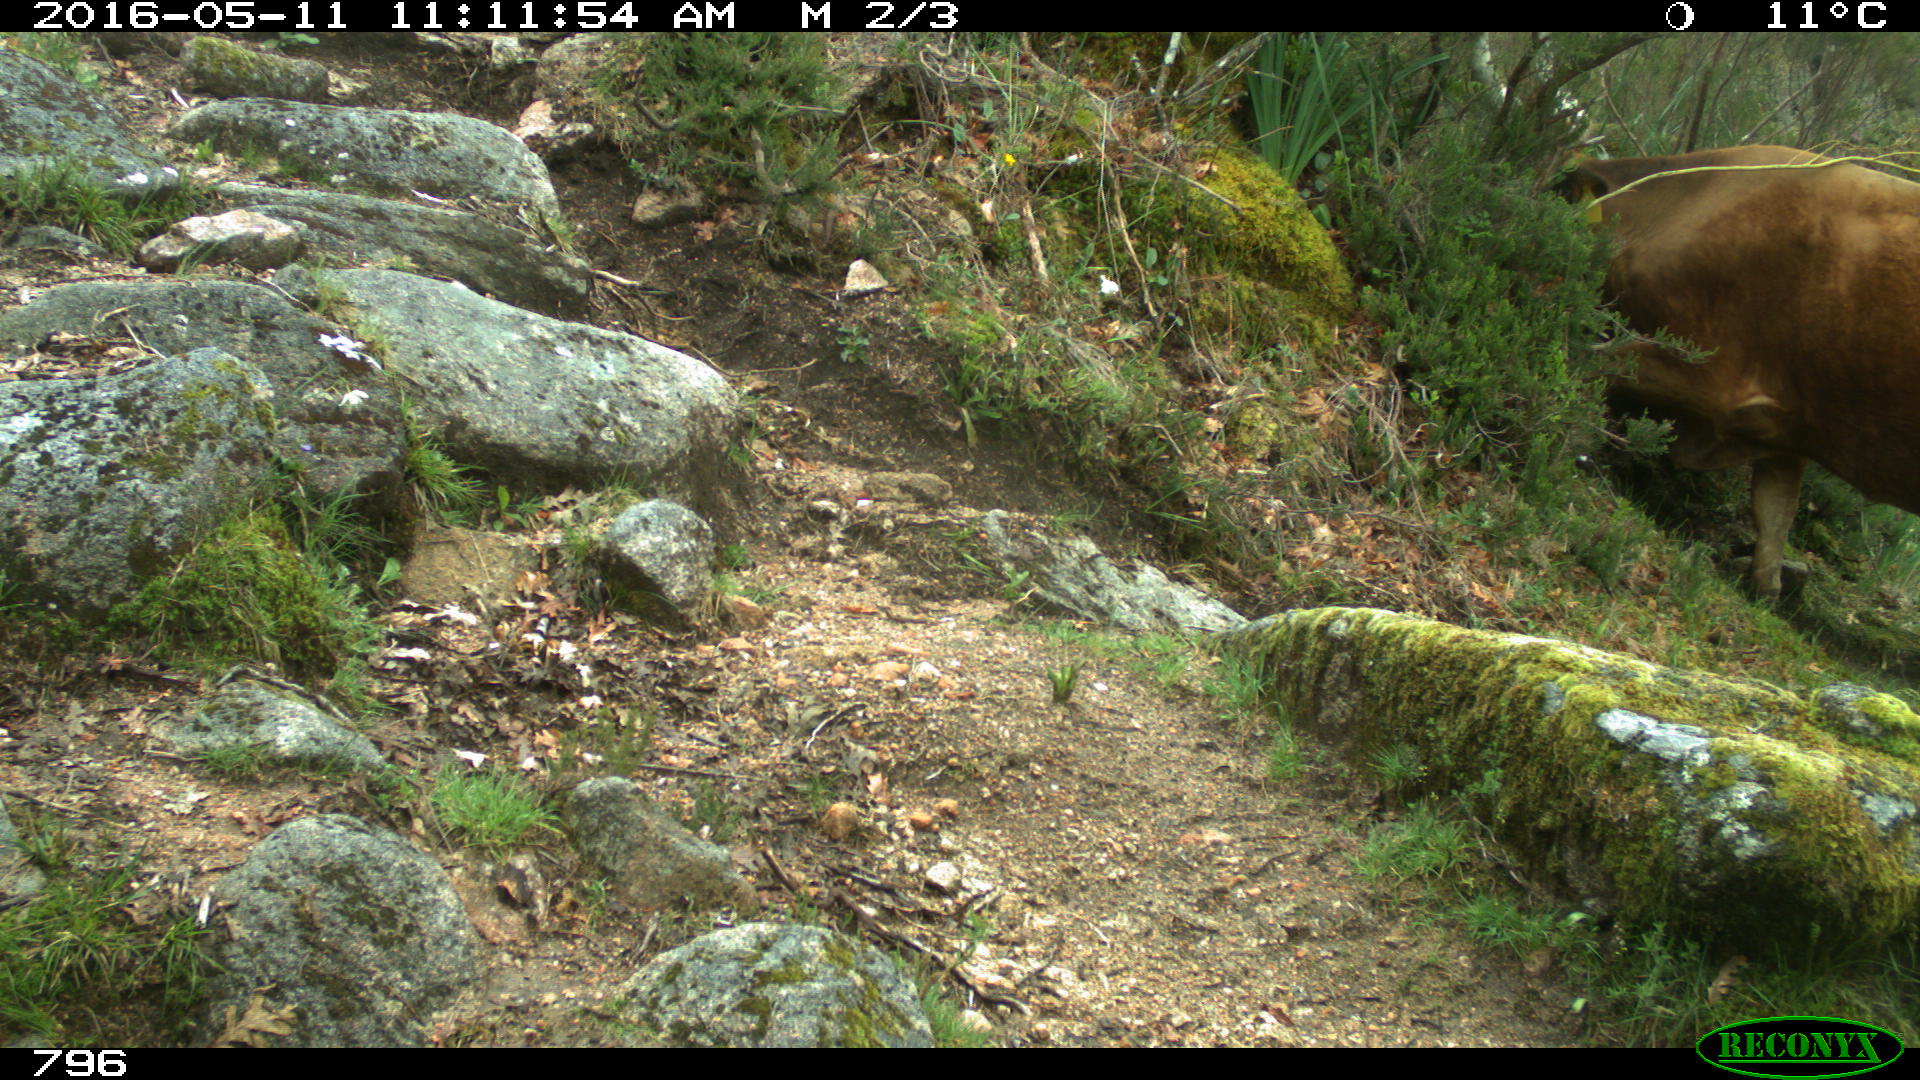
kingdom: Animalia
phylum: Chordata
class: Mammalia
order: Artiodactyla
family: Bovidae
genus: Bos
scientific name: Bos taurus
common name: Domesticated cattle
